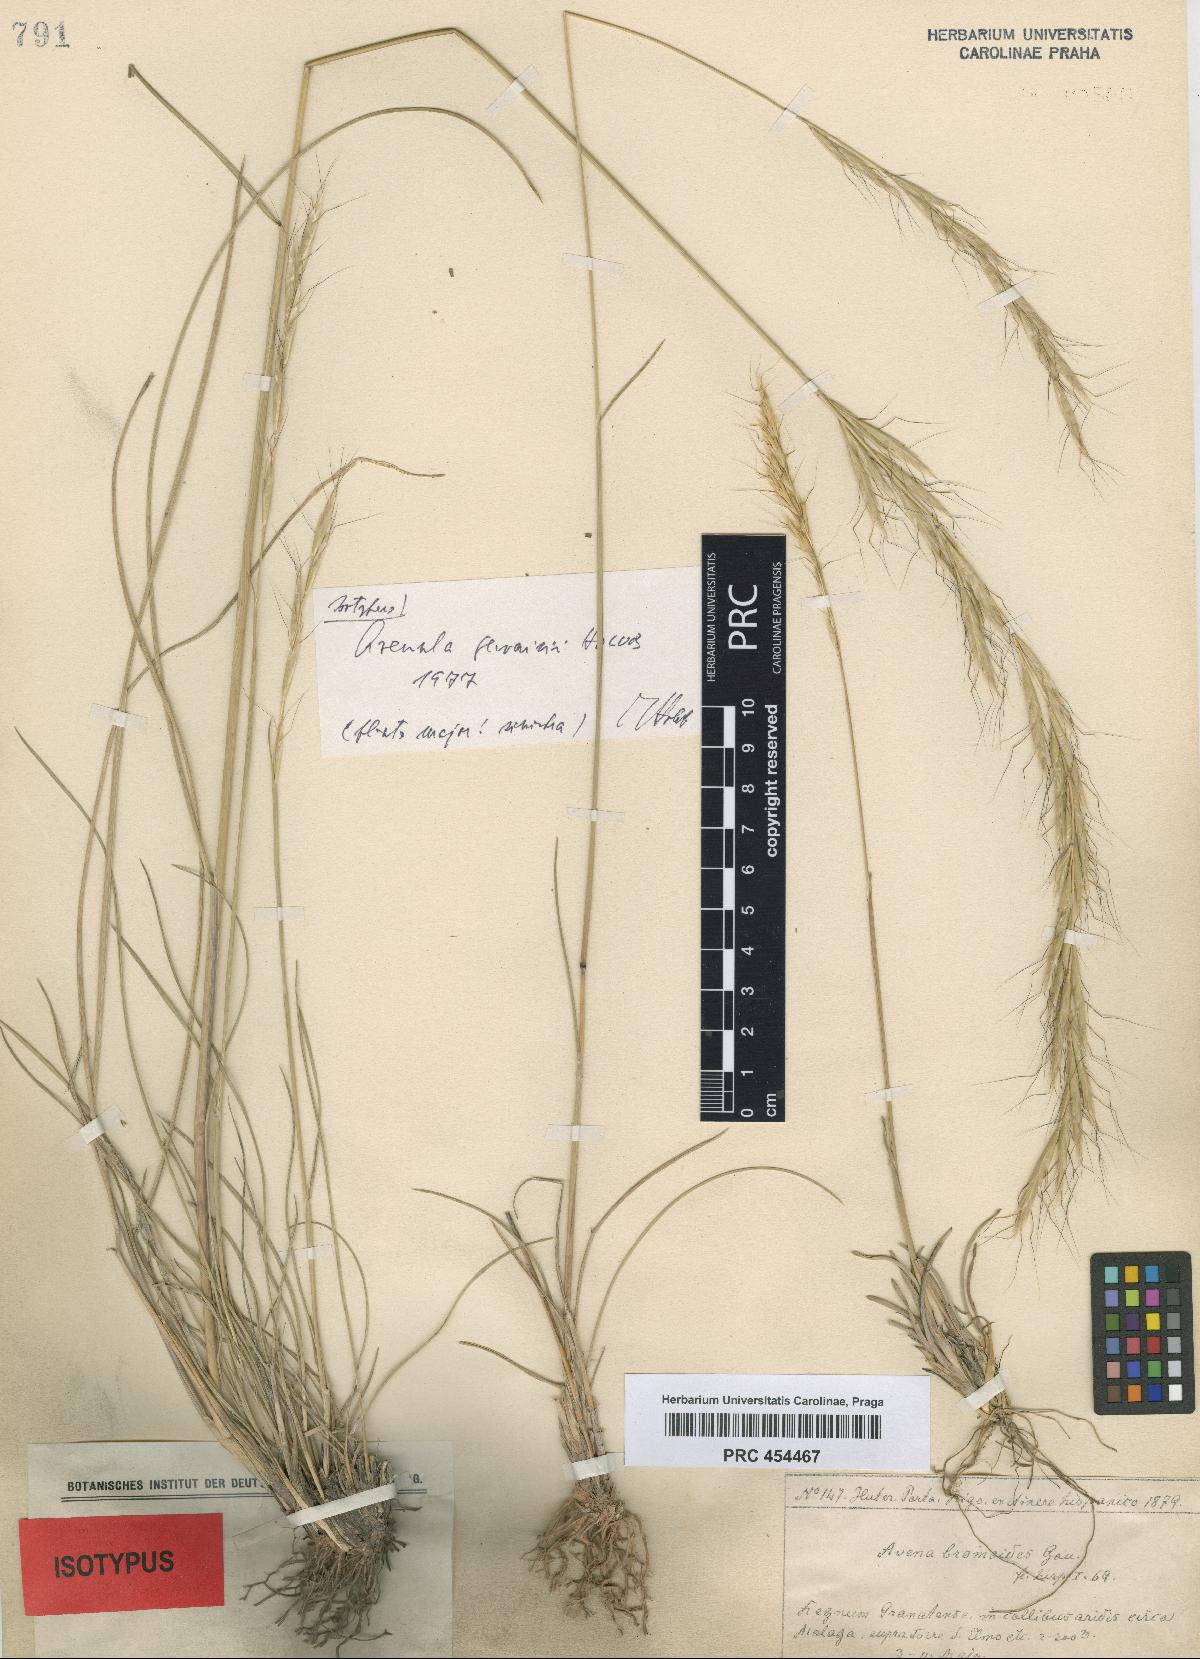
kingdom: Plantae
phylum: Tracheophyta
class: Liliopsida
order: Poales
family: Poaceae
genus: Helictochloa
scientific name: Helictochloa gervaisii
